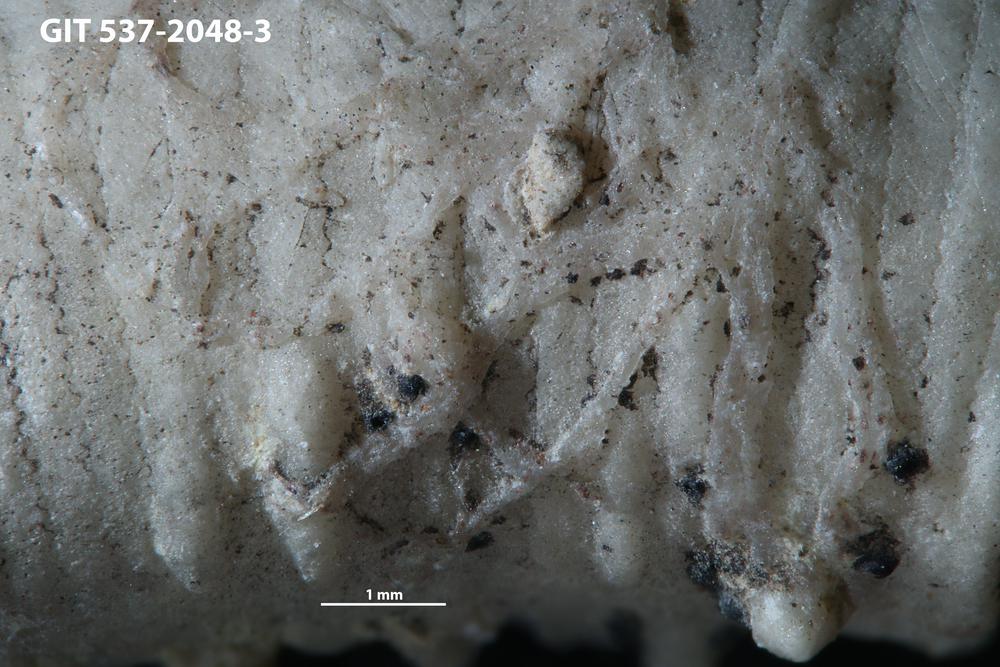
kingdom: Animalia
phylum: Bryozoa
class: Stenolaemata
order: Cyclostomatida
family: Corynotrypidae
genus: Corynotrypa
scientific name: Corynotrypa delicatula
